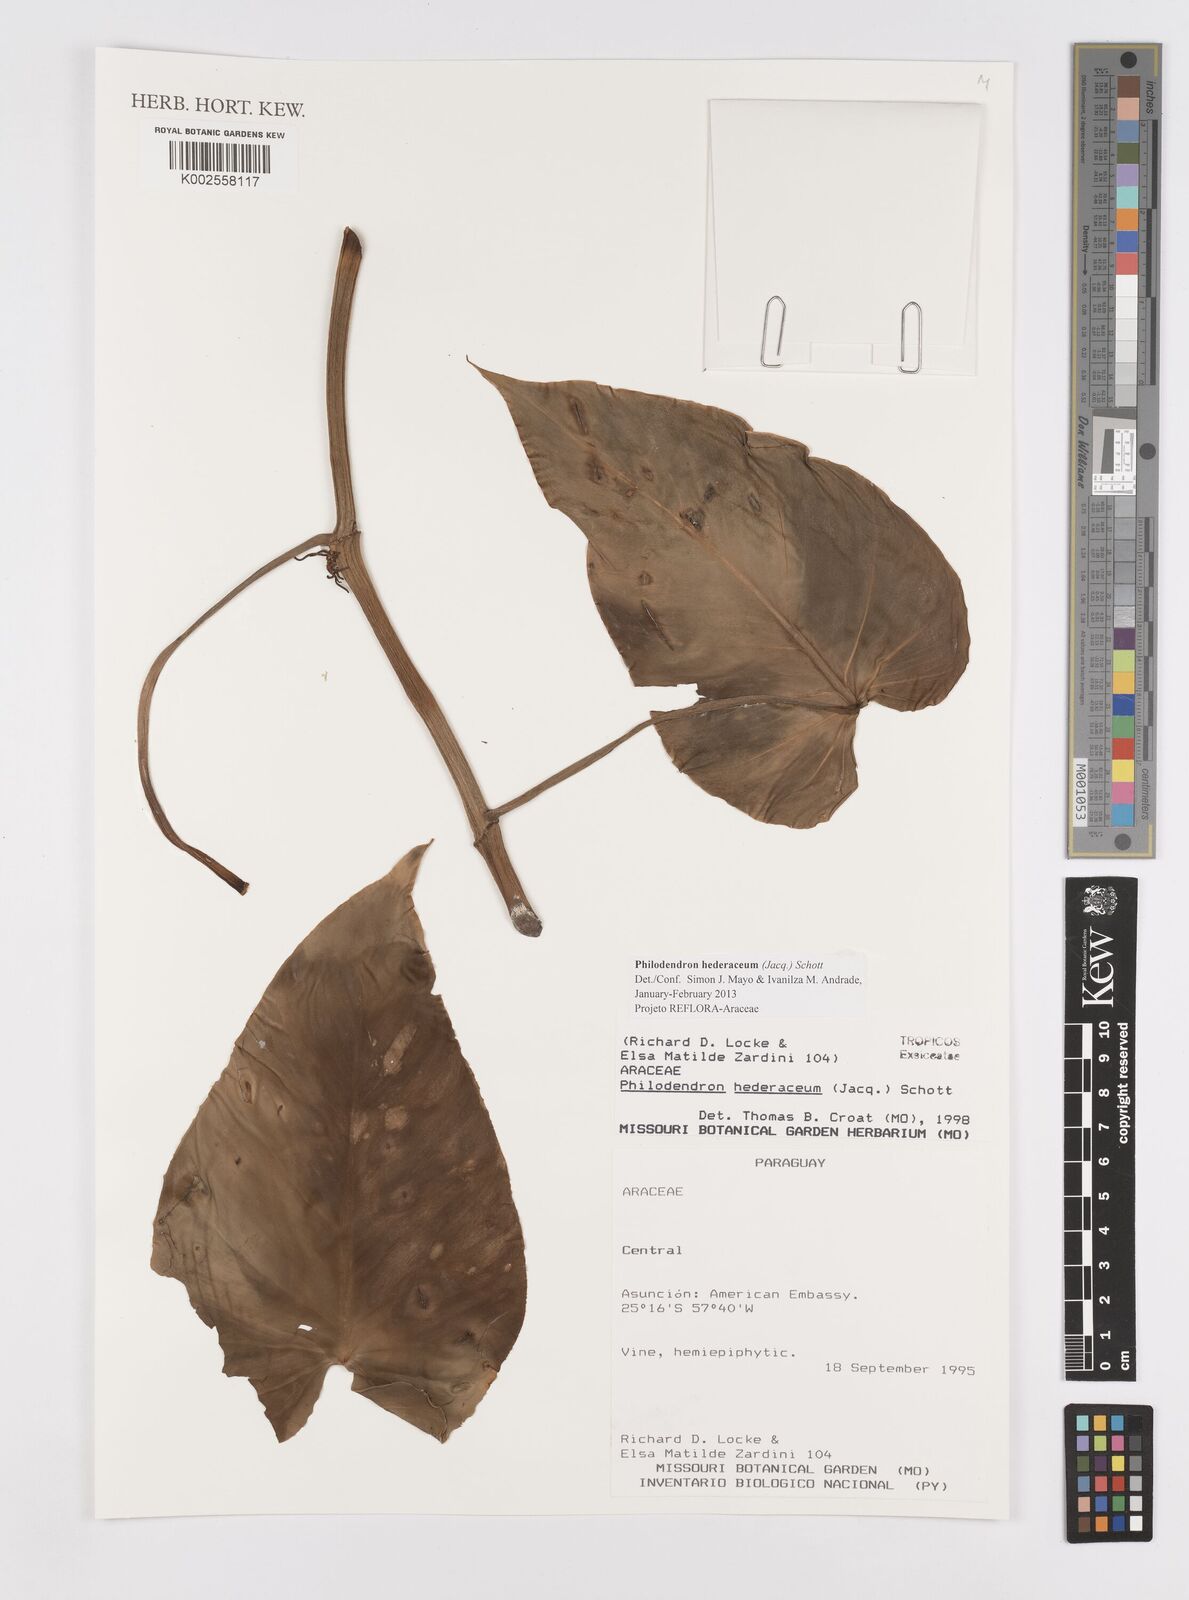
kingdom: Plantae
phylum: Tracheophyta
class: Liliopsida
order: Alismatales
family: Araceae
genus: Philodendron
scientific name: Philodendron hederaceum
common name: Vilevine
